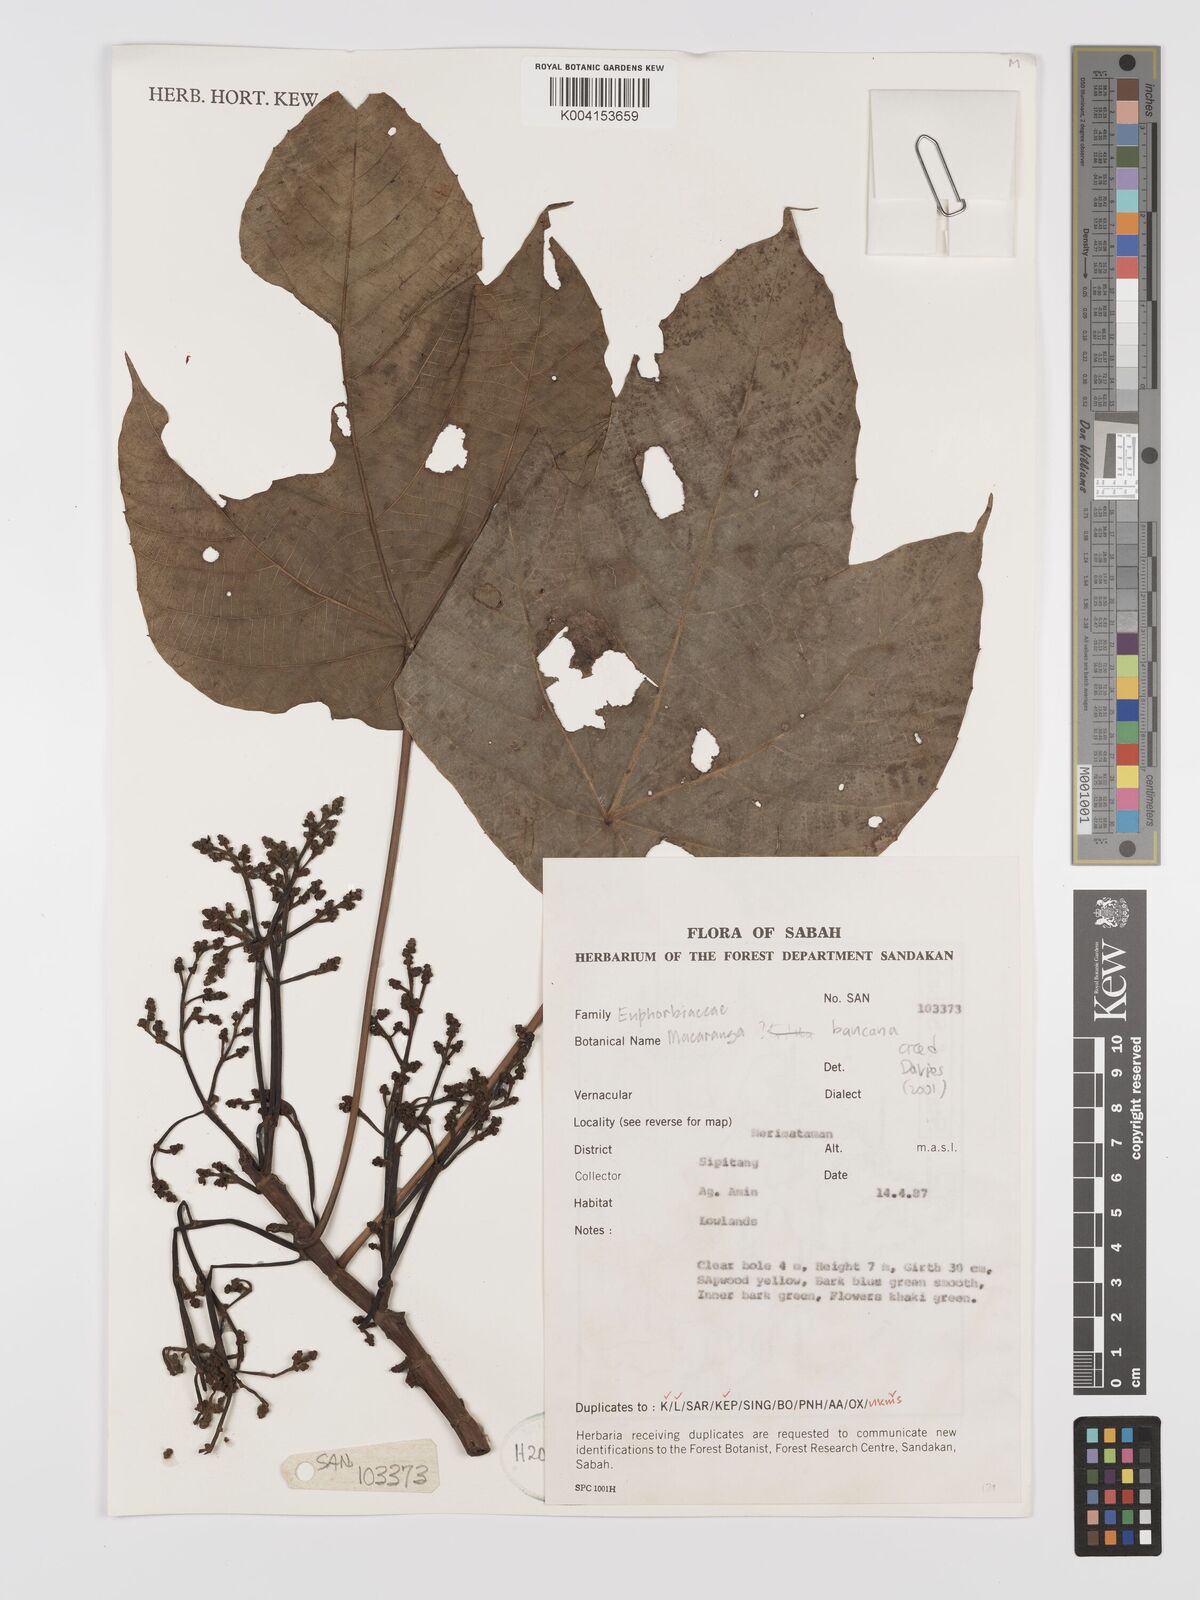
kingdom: Plantae
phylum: Tracheophyta
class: Magnoliopsida
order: Malpighiales
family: Euphorbiaceae
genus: Macaranga
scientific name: Macaranga triloba
